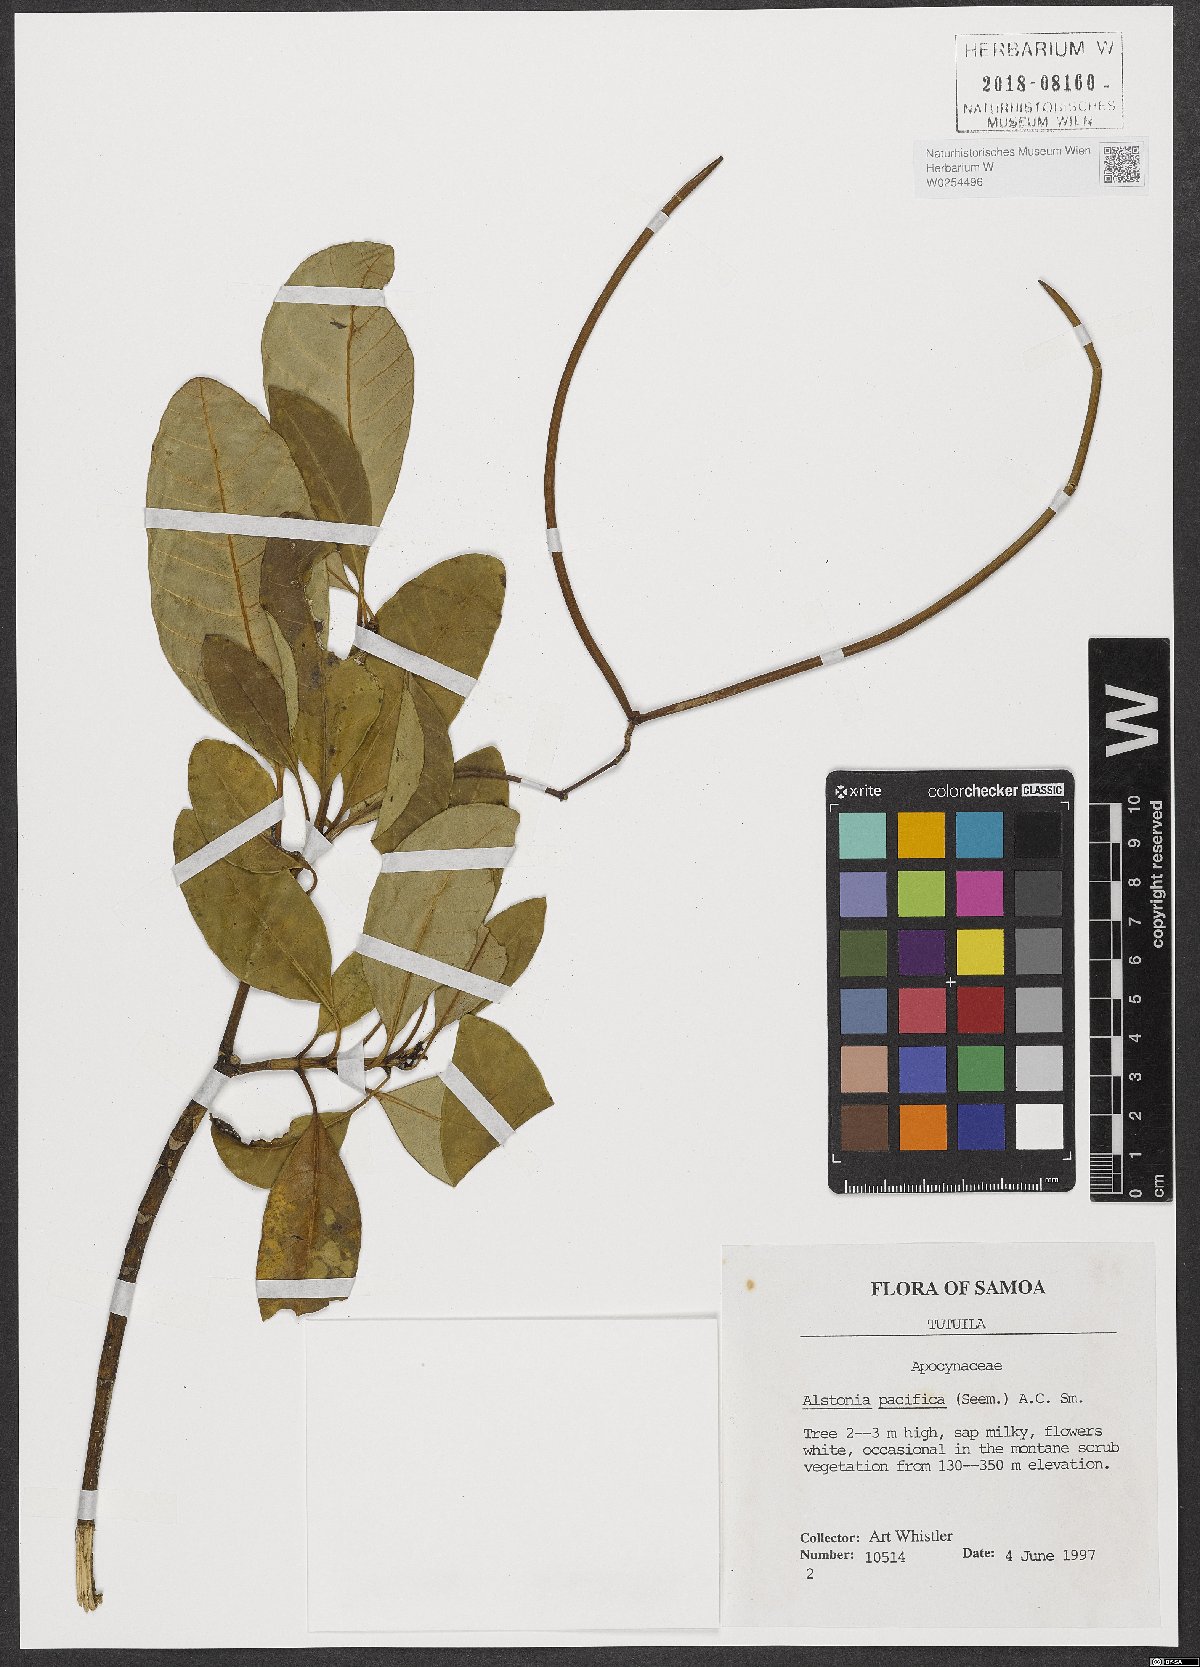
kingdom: Plantae
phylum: Tracheophyta
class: Magnoliopsida
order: Gentianales
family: Apocynaceae
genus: Alstonia
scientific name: Alstonia costata
